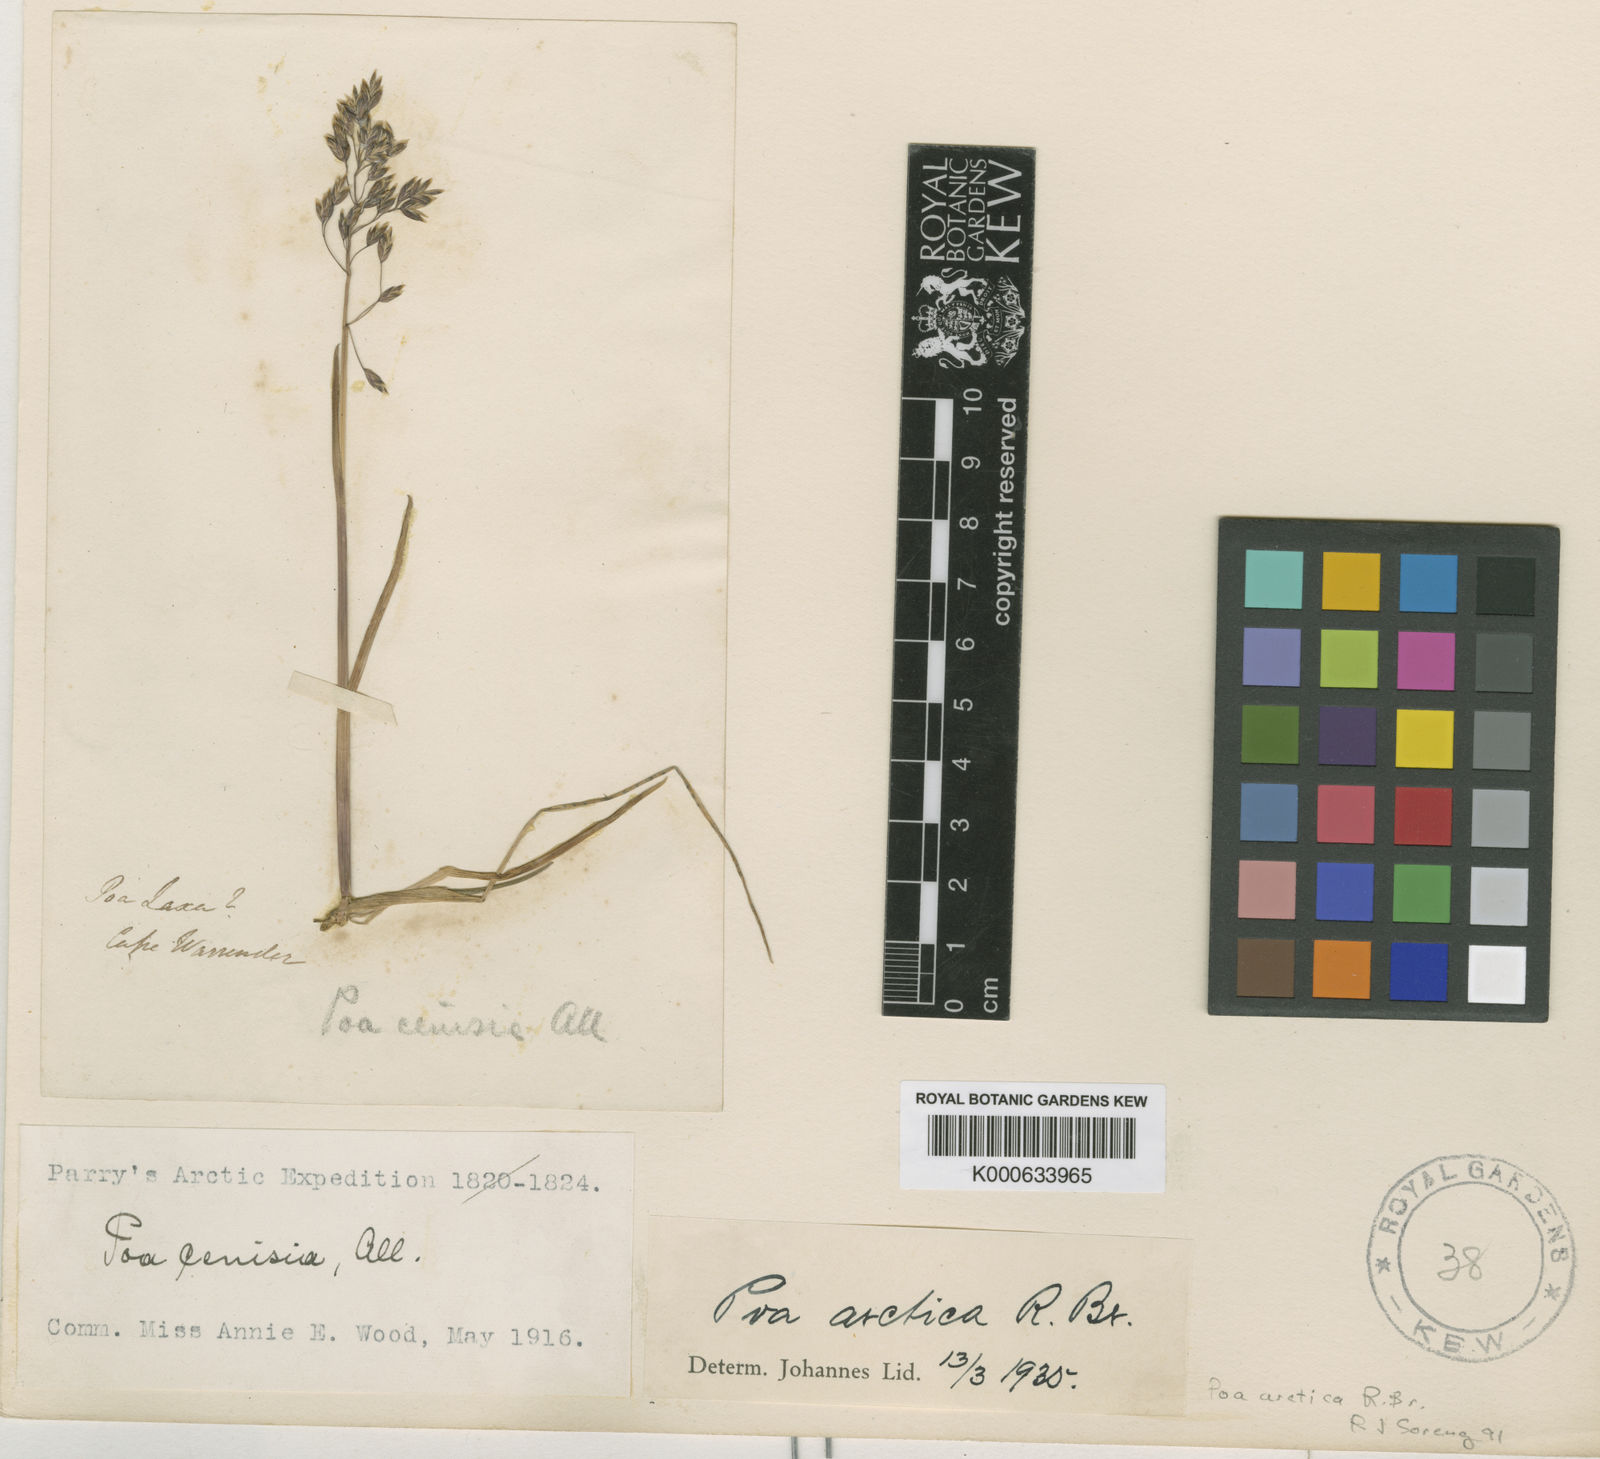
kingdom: Plantae
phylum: Tracheophyta
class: Liliopsida
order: Poales
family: Poaceae
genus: Poa
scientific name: Poa arctica
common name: Arctic bluegrass
